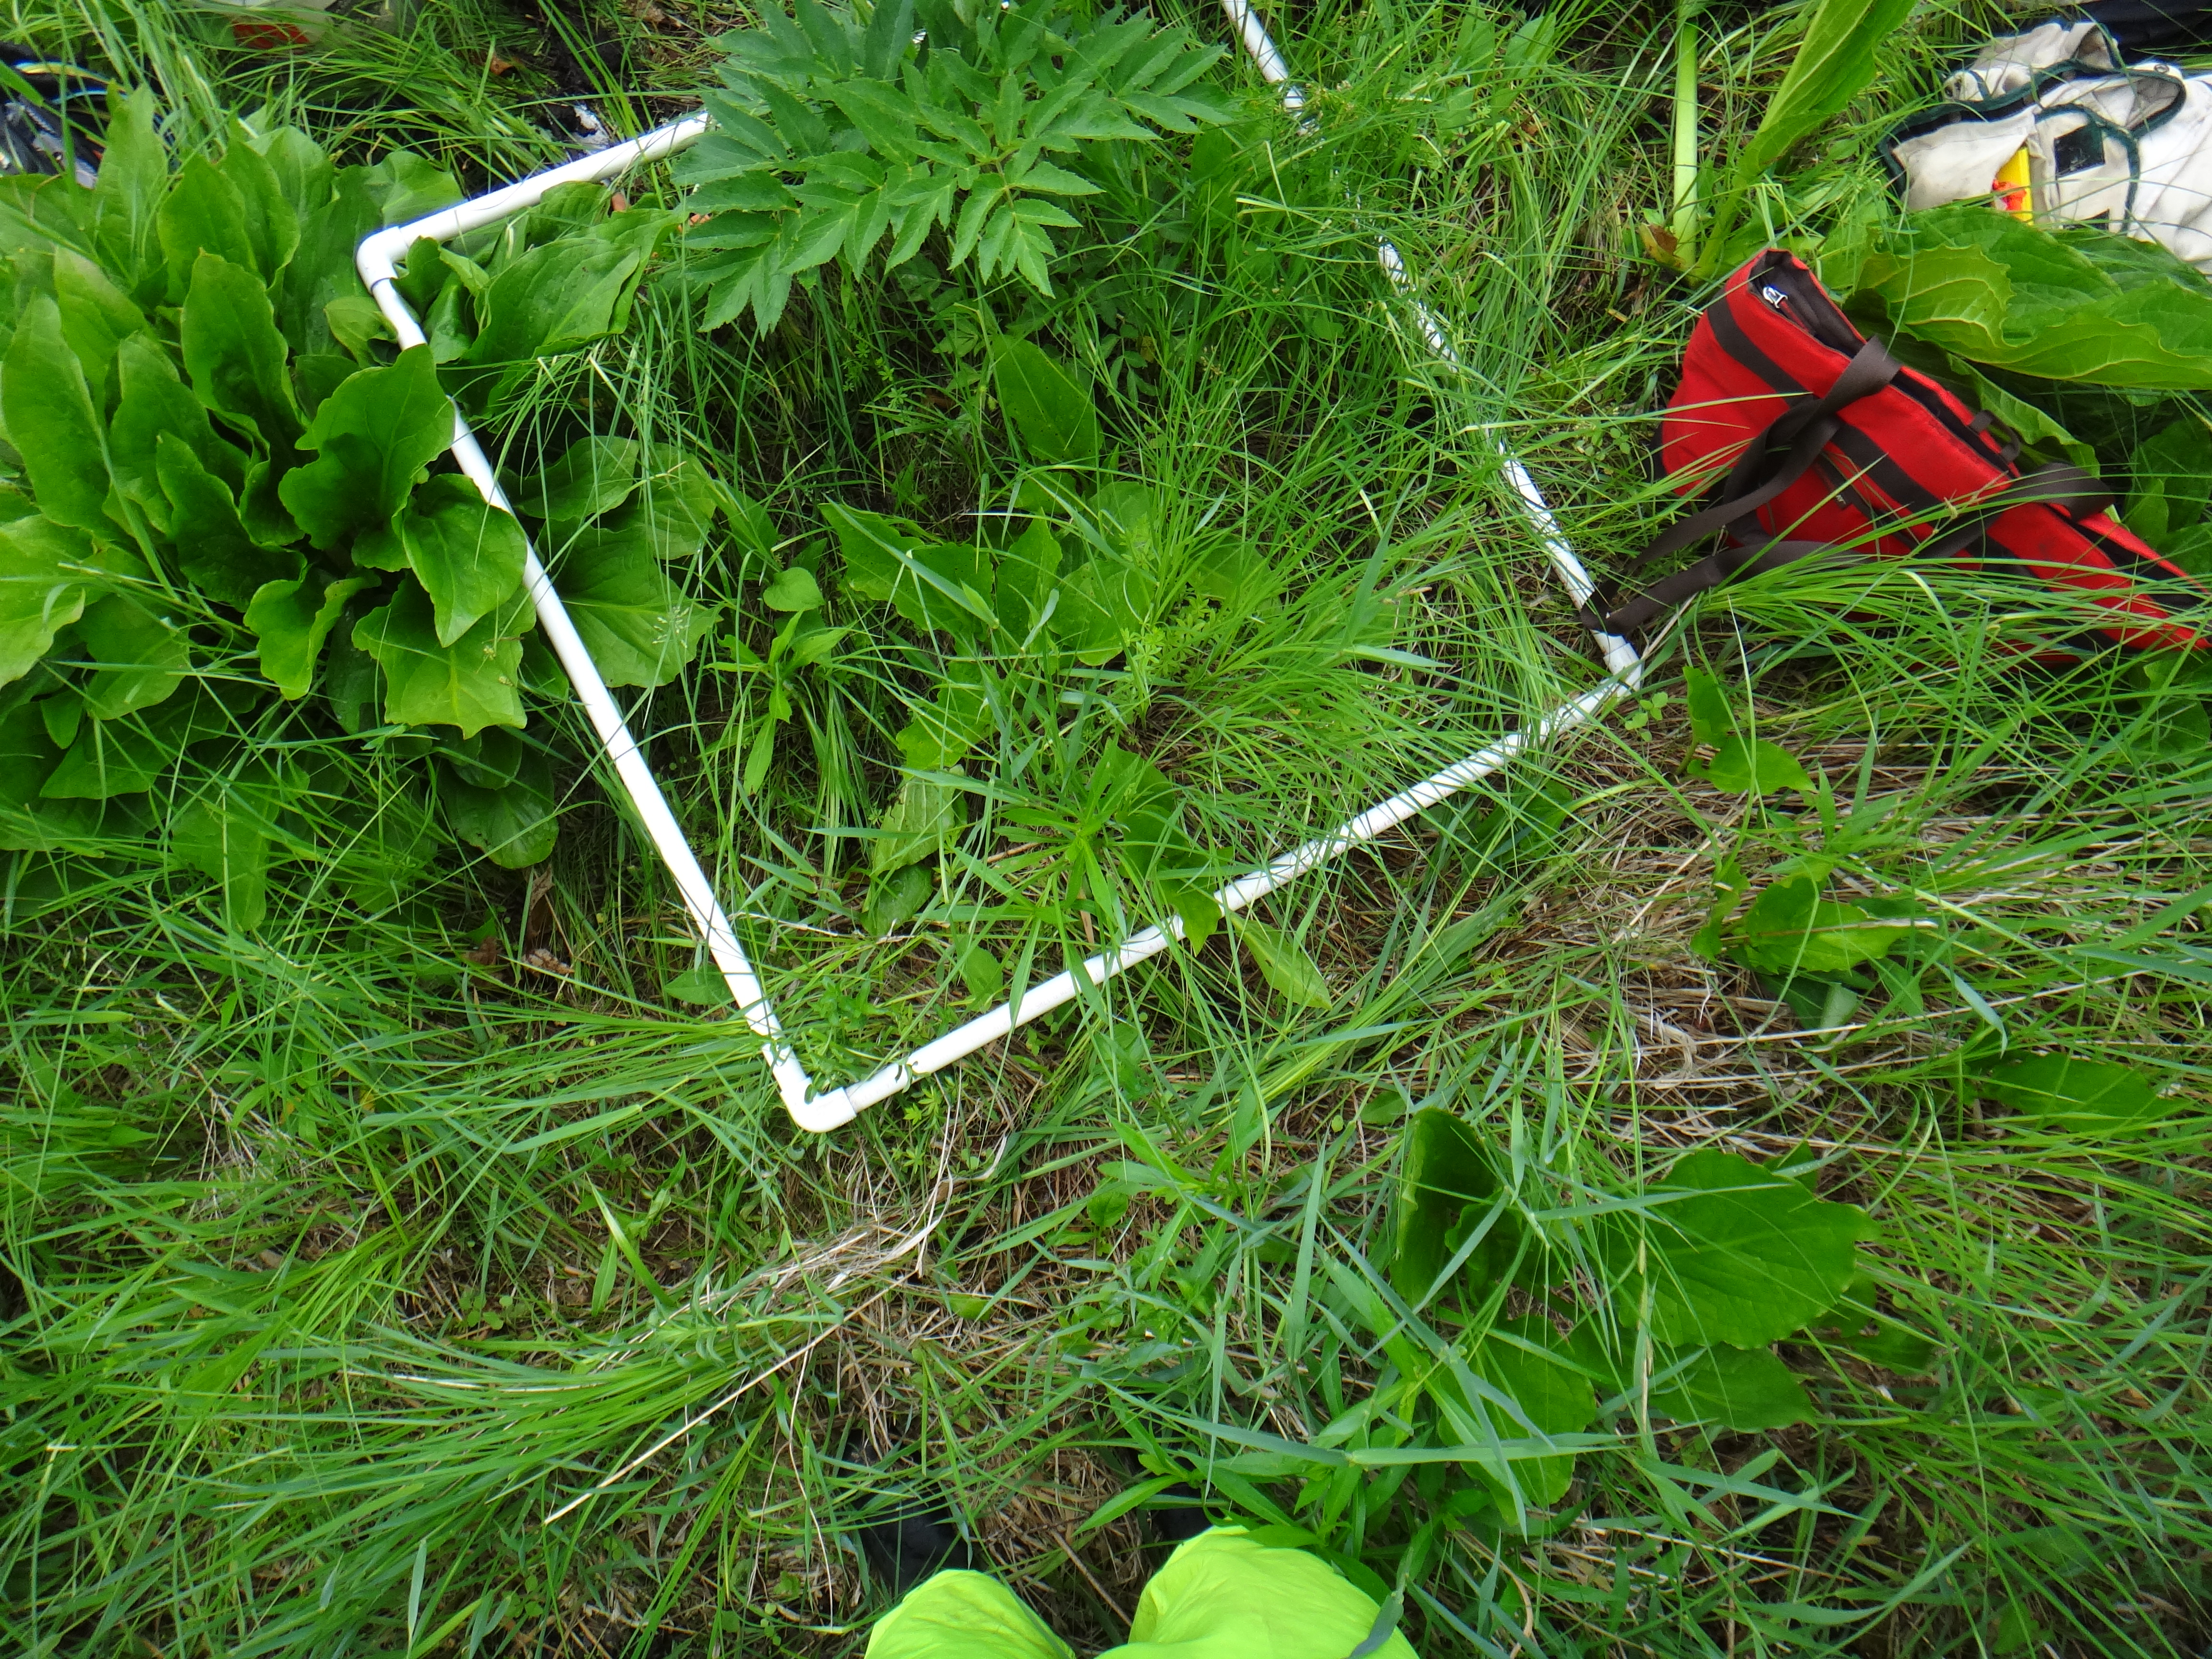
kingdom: Plantae
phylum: Tracheophyta
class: Liliopsida
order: Poales
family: Poaceae
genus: Poa
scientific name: Poa pratensis
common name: Kentucky bluegrass
